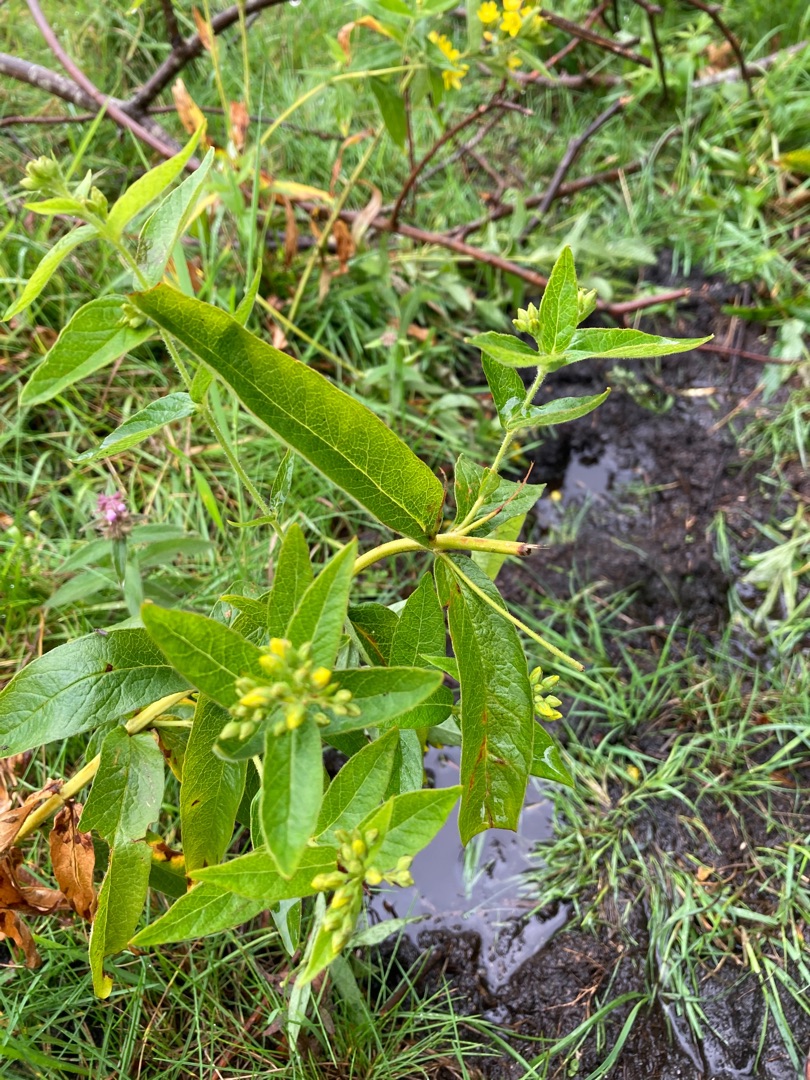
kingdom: Plantae
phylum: Tracheophyta
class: Magnoliopsida
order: Ericales
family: Primulaceae
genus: Lysimachia
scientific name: Lysimachia vulgaris
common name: Almindelig fredløs
